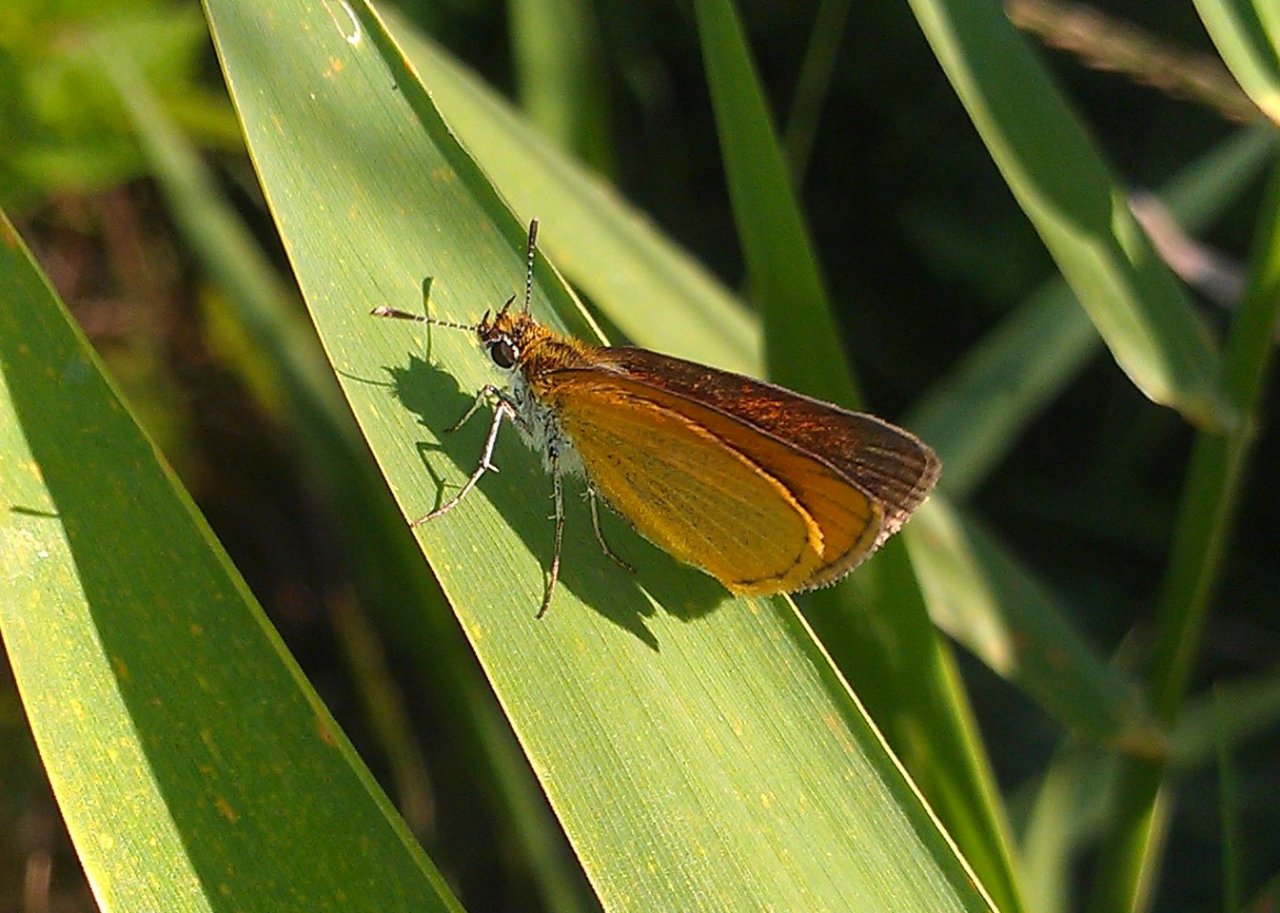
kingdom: Animalia
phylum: Arthropoda
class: Insecta
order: Lepidoptera
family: Hesperiidae
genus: Ancyloxypha
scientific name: Ancyloxypha numitor
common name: Least Skipper
